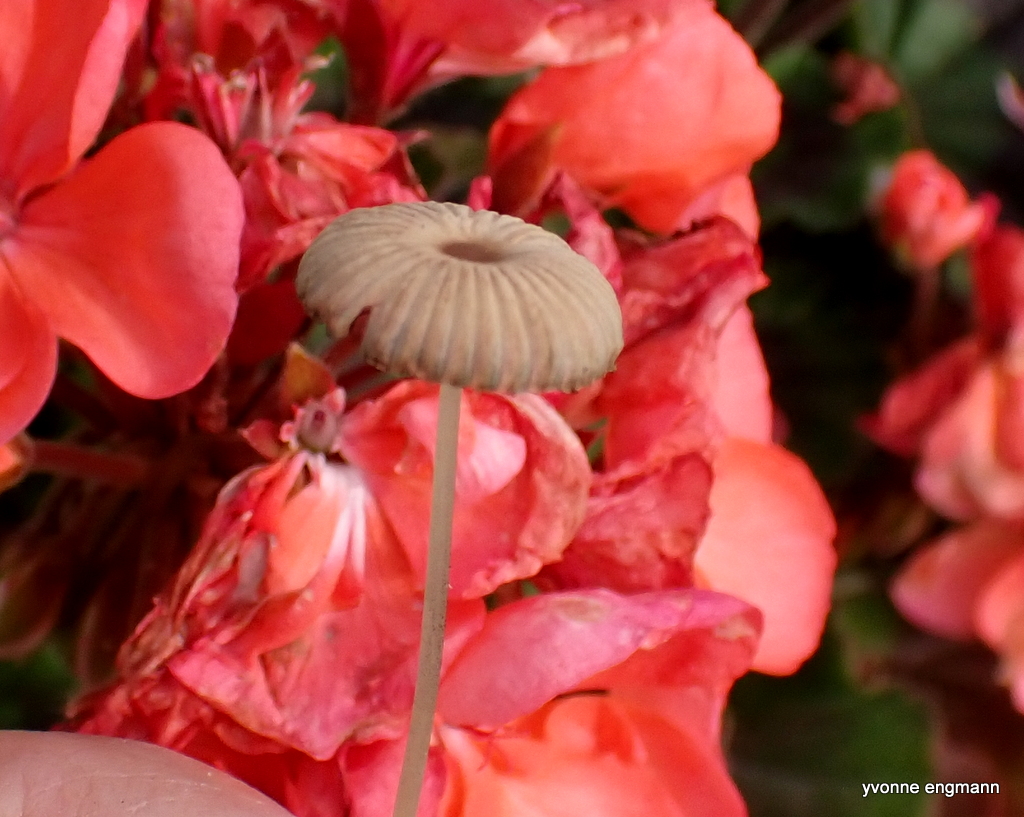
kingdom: Fungi
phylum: Basidiomycota
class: Agaricomycetes
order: Agaricales
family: Psathyrellaceae
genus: Parasola
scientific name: Parasola
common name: hjulhat
